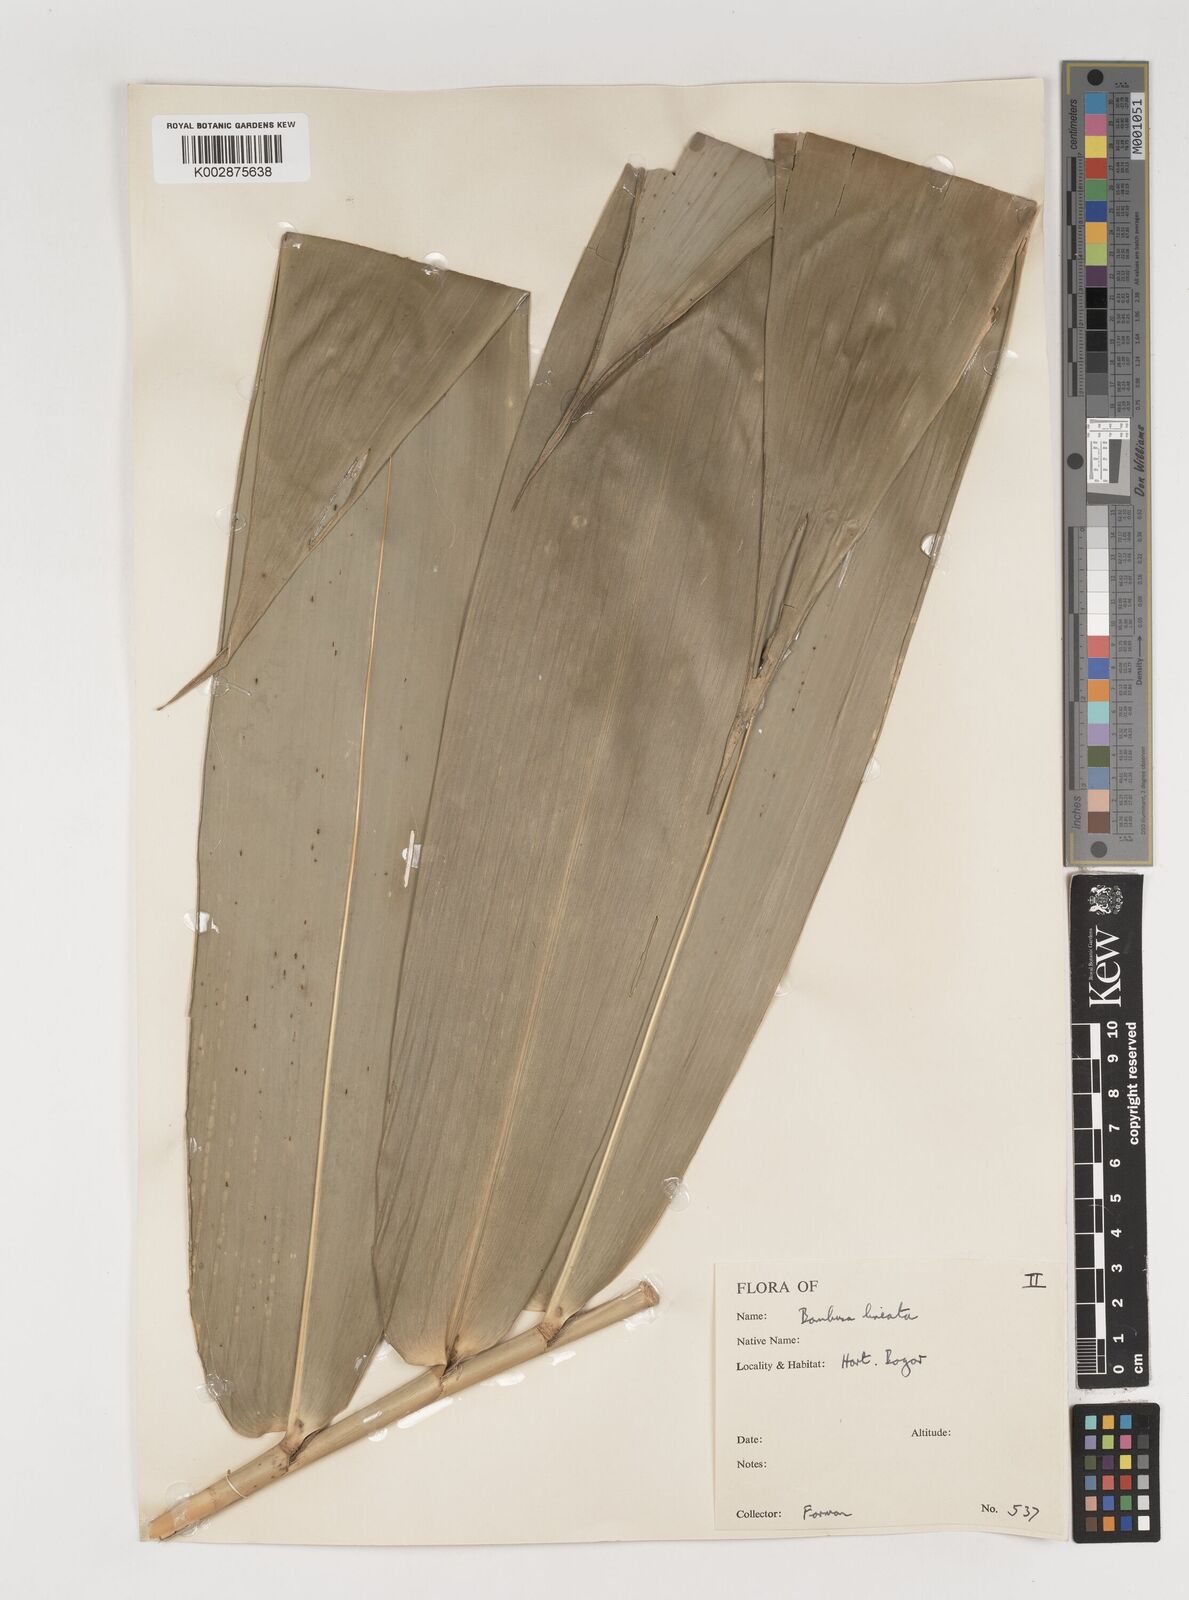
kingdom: Plantae
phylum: Tracheophyta
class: Liliopsida
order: Poales
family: Poaceae
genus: Neololeba
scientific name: Neololeba atra
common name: Cape bamboo
